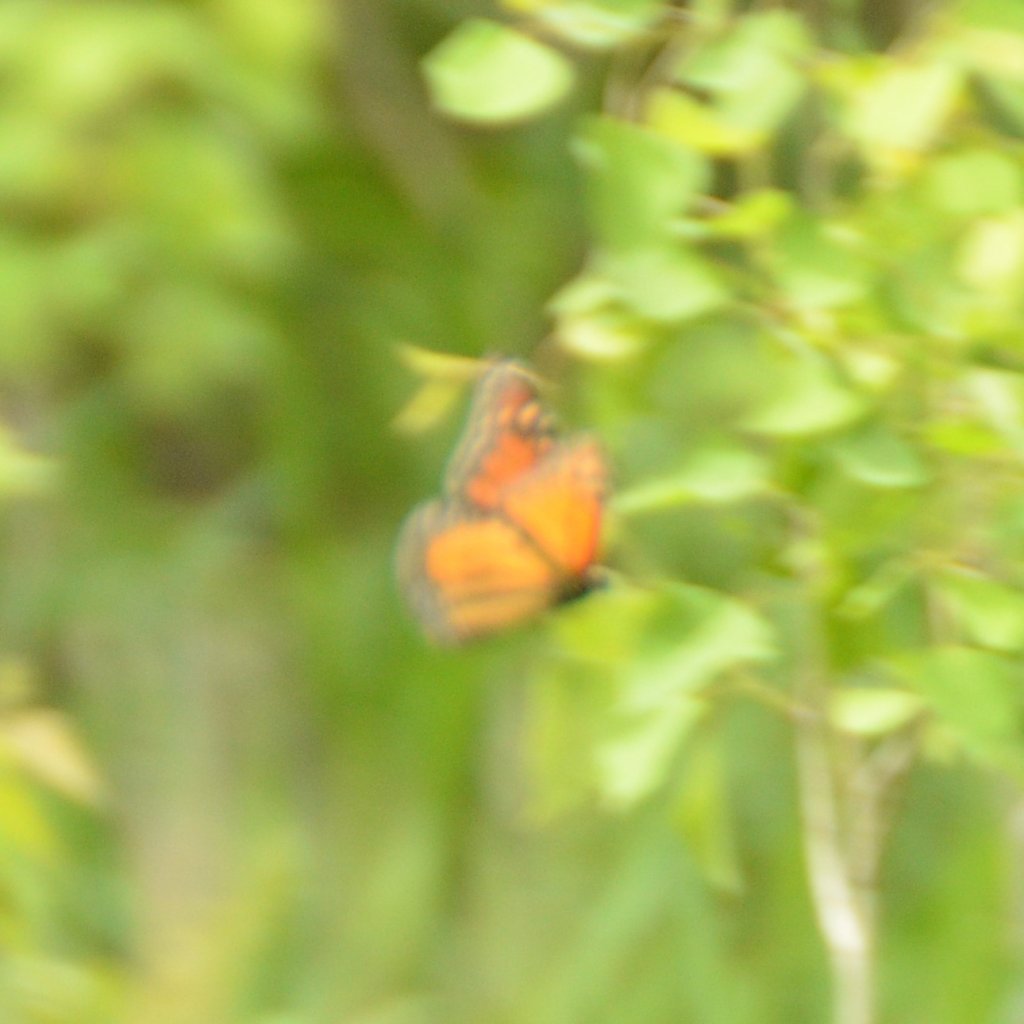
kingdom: Animalia
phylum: Arthropoda
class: Insecta
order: Lepidoptera
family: Nymphalidae
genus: Danaus
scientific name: Danaus plexippus
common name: Monarch
